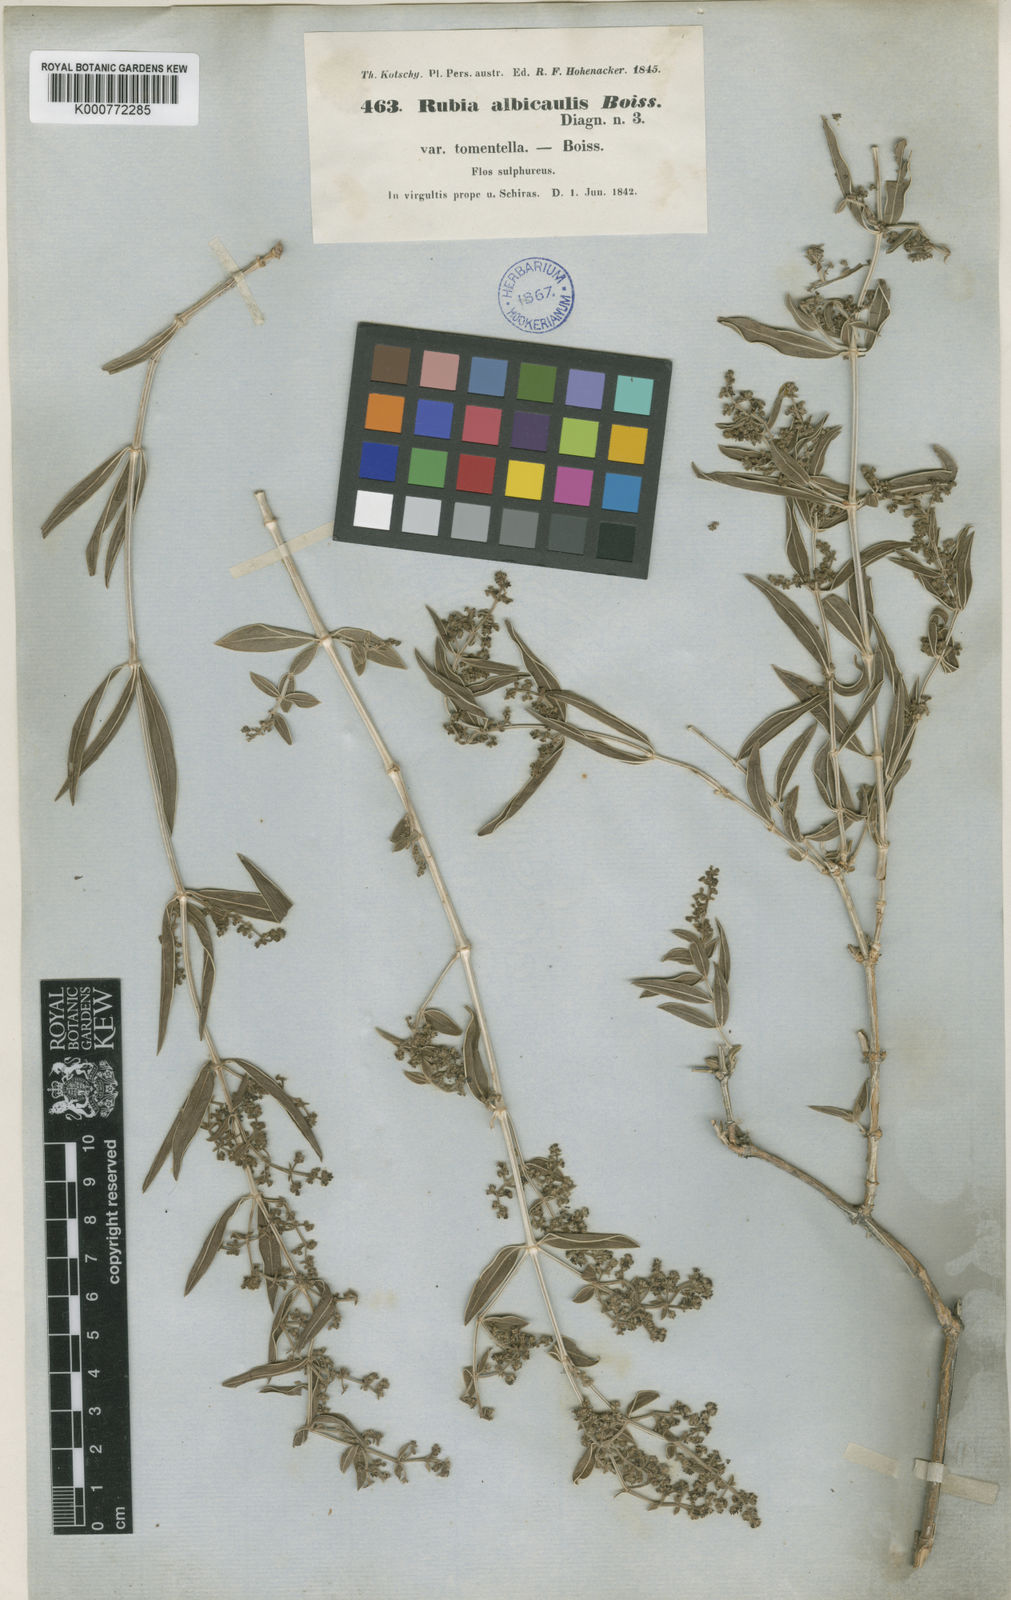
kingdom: Plantae
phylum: Tracheophyta
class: Magnoliopsida
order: Gentianales
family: Rubiaceae
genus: Rubia
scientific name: Rubia albicaulis
